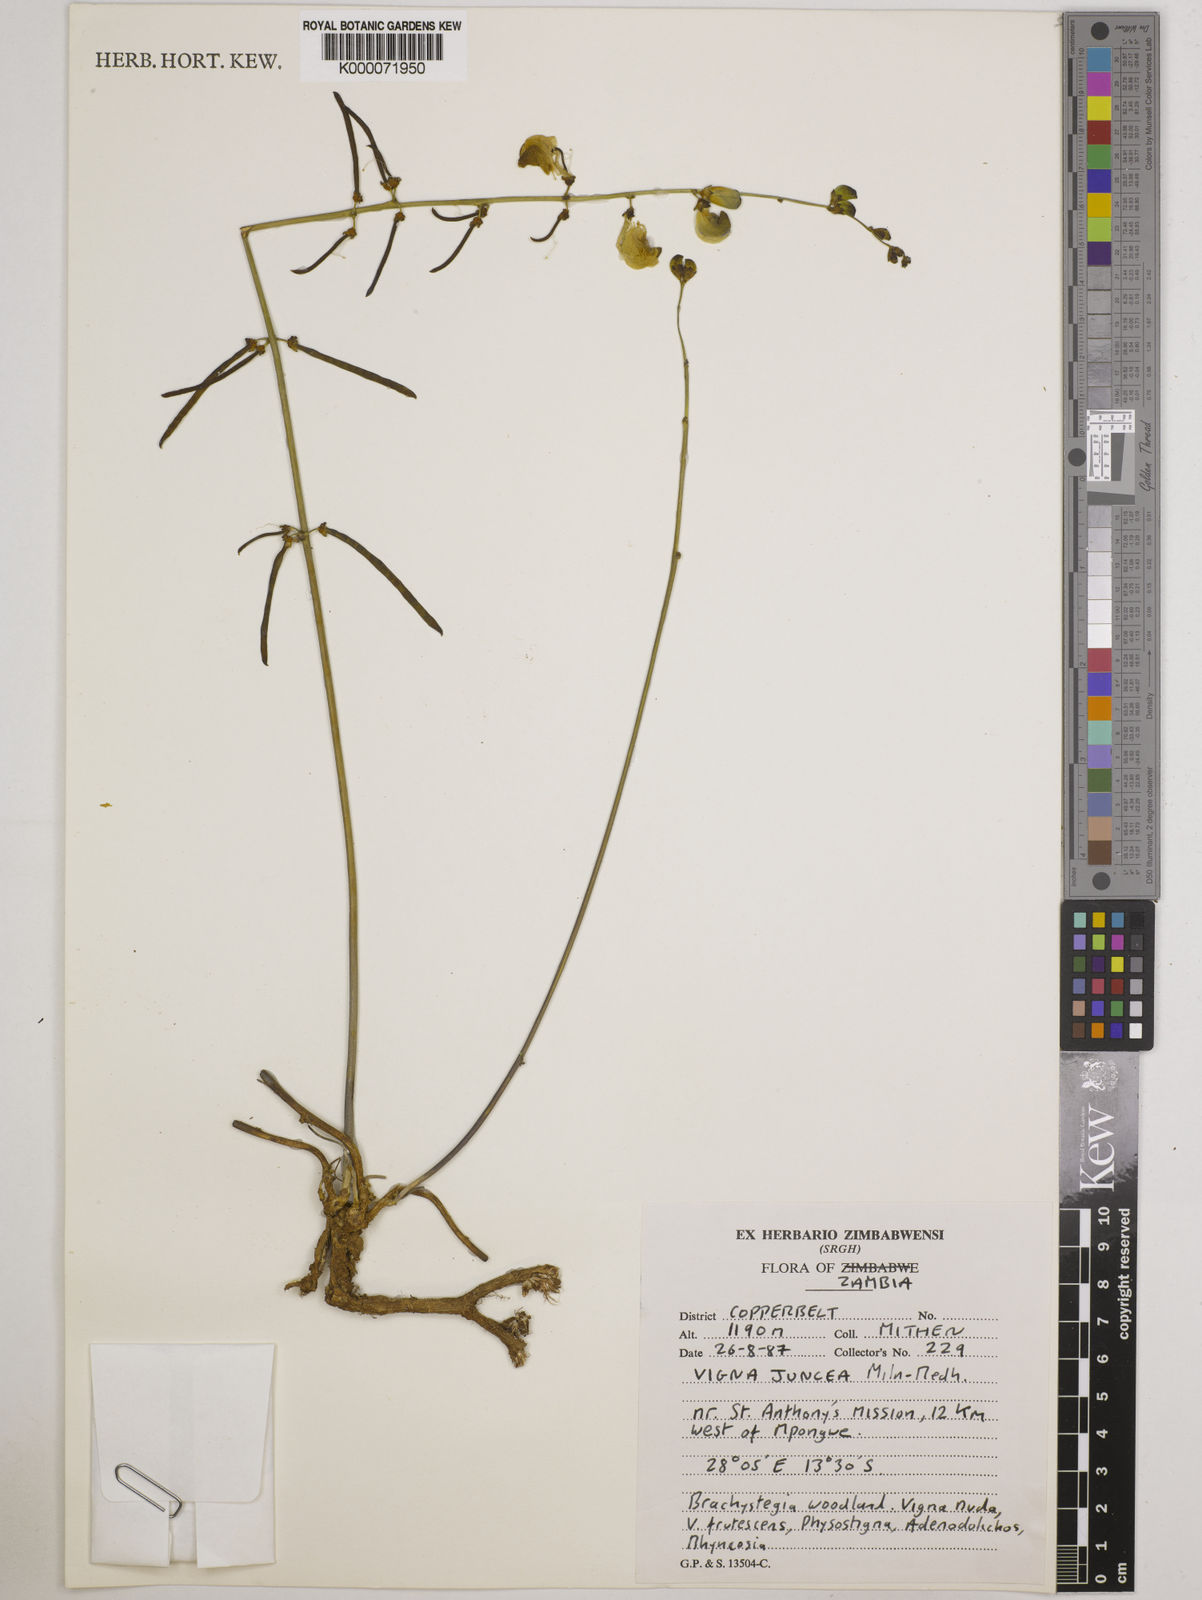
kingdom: Plantae
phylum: Tracheophyta
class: Magnoliopsida
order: Fabales
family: Fabaceae
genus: Vigna
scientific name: Vigna juncea
